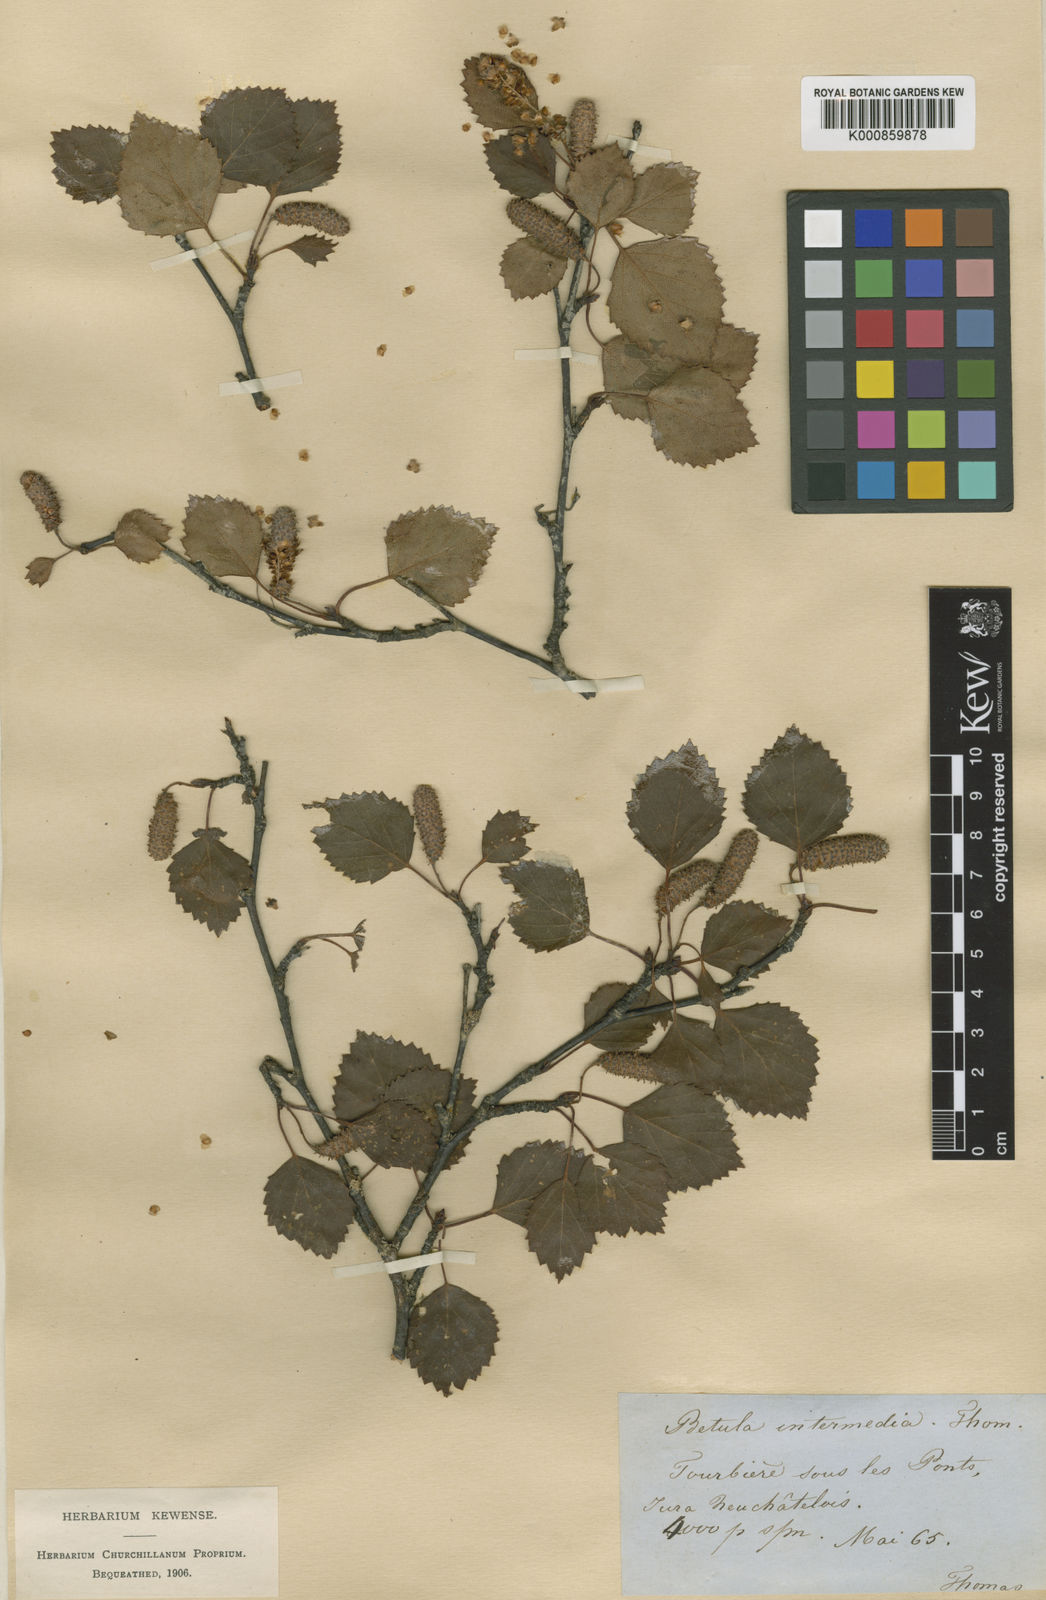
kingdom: Plantae
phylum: Tracheophyta
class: Magnoliopsida
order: Fagales
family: Betulaceae
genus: Betula
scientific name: Betula
